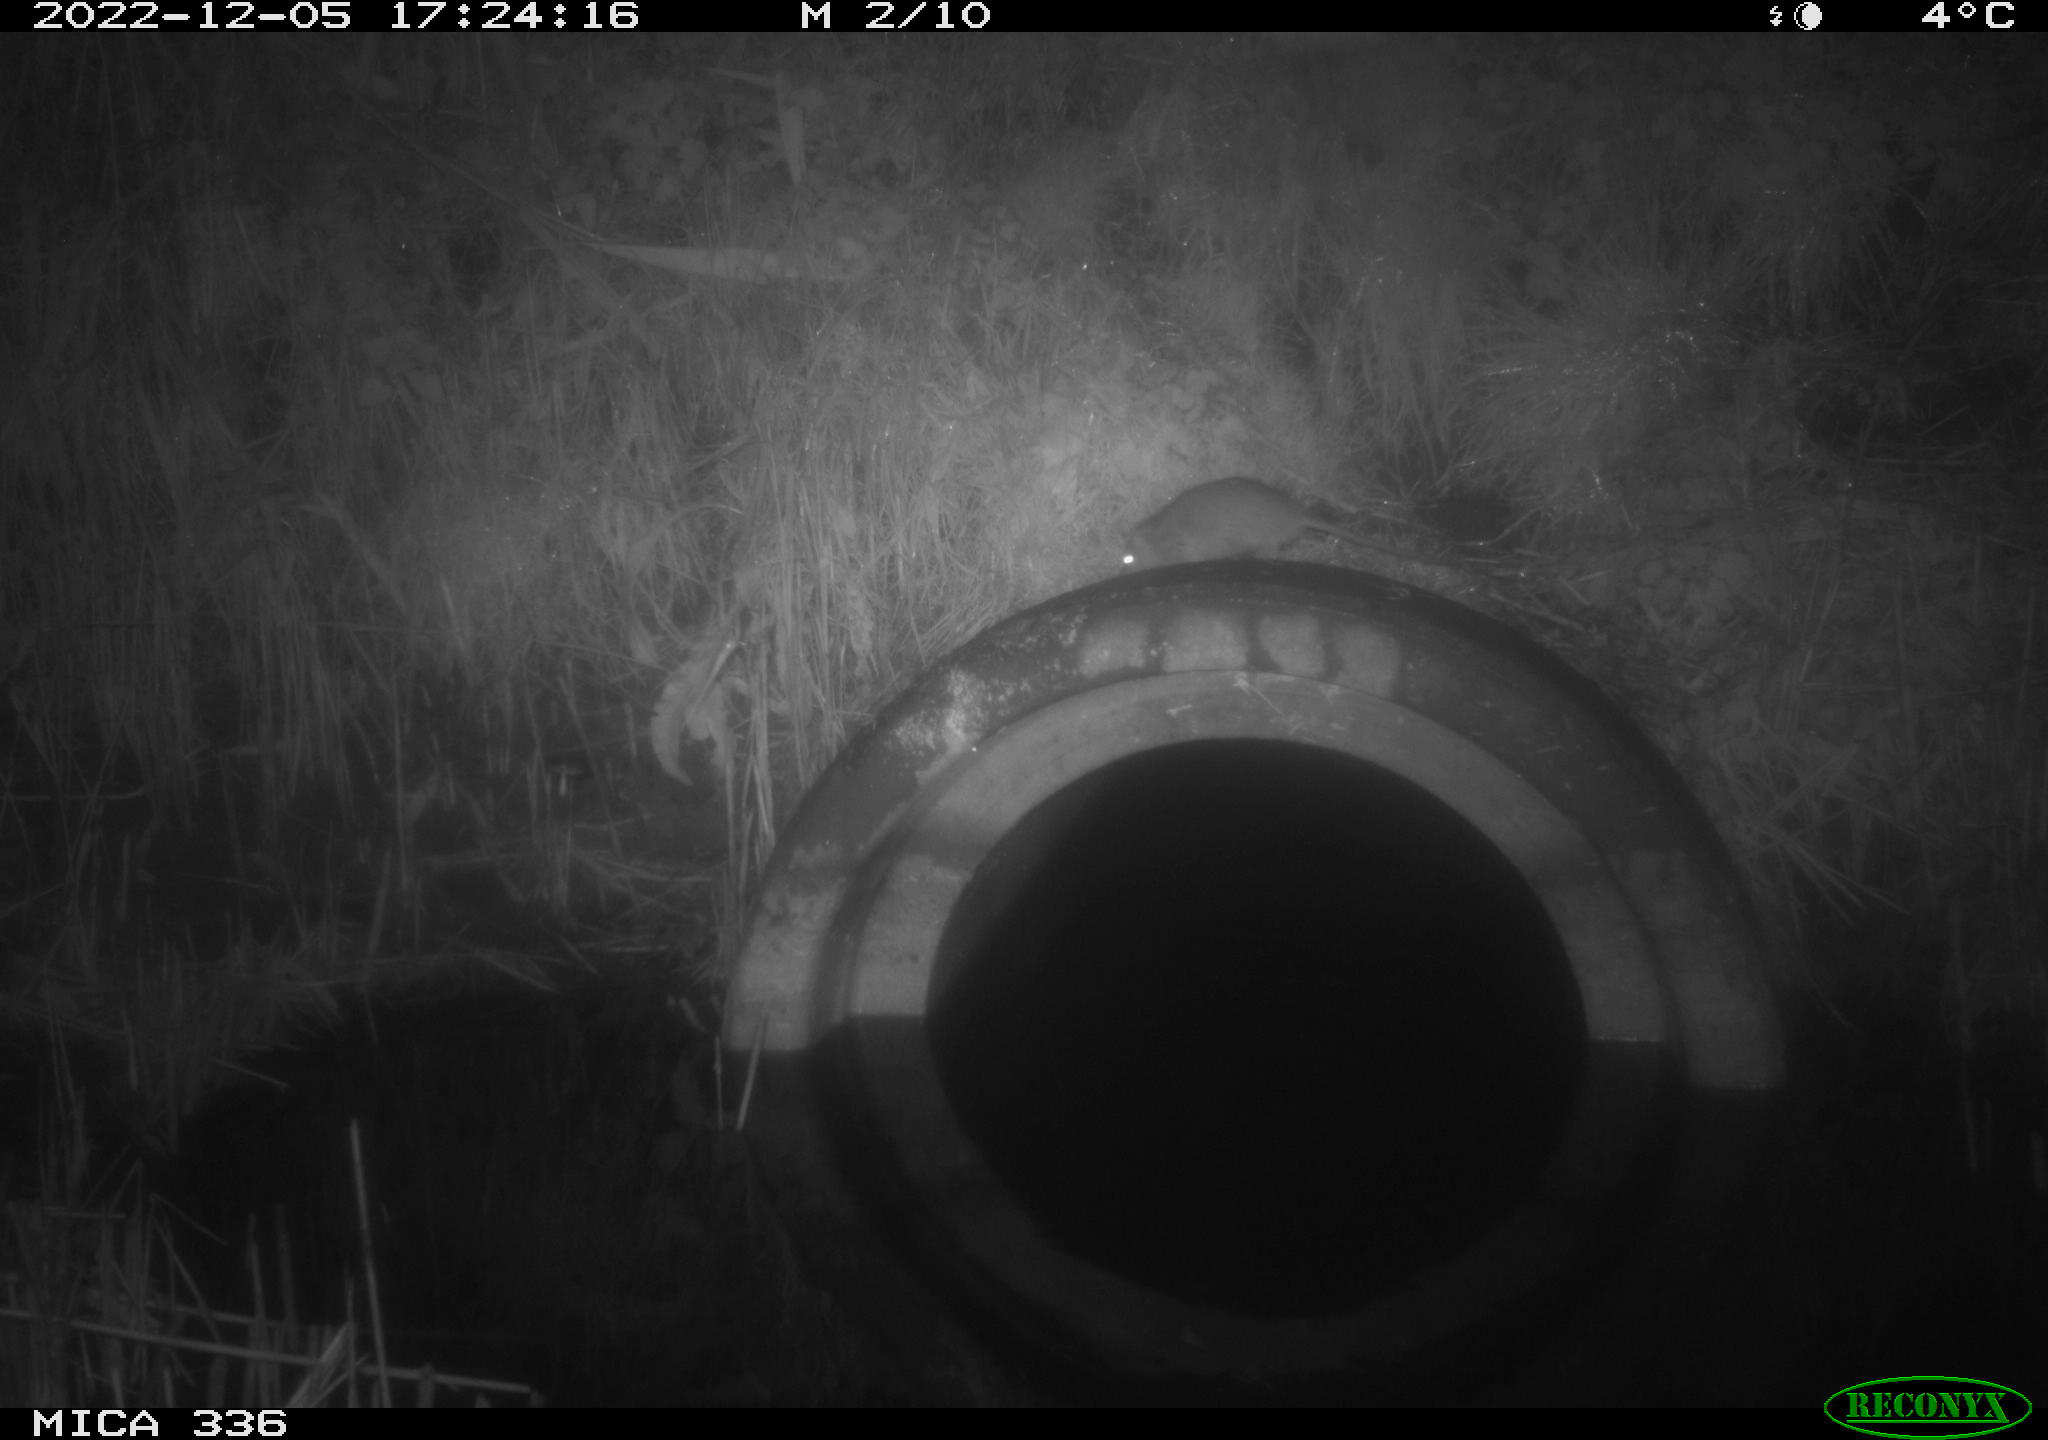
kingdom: Animalia
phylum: Chordata
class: Mammalia
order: Rodentia
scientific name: Rodentia
